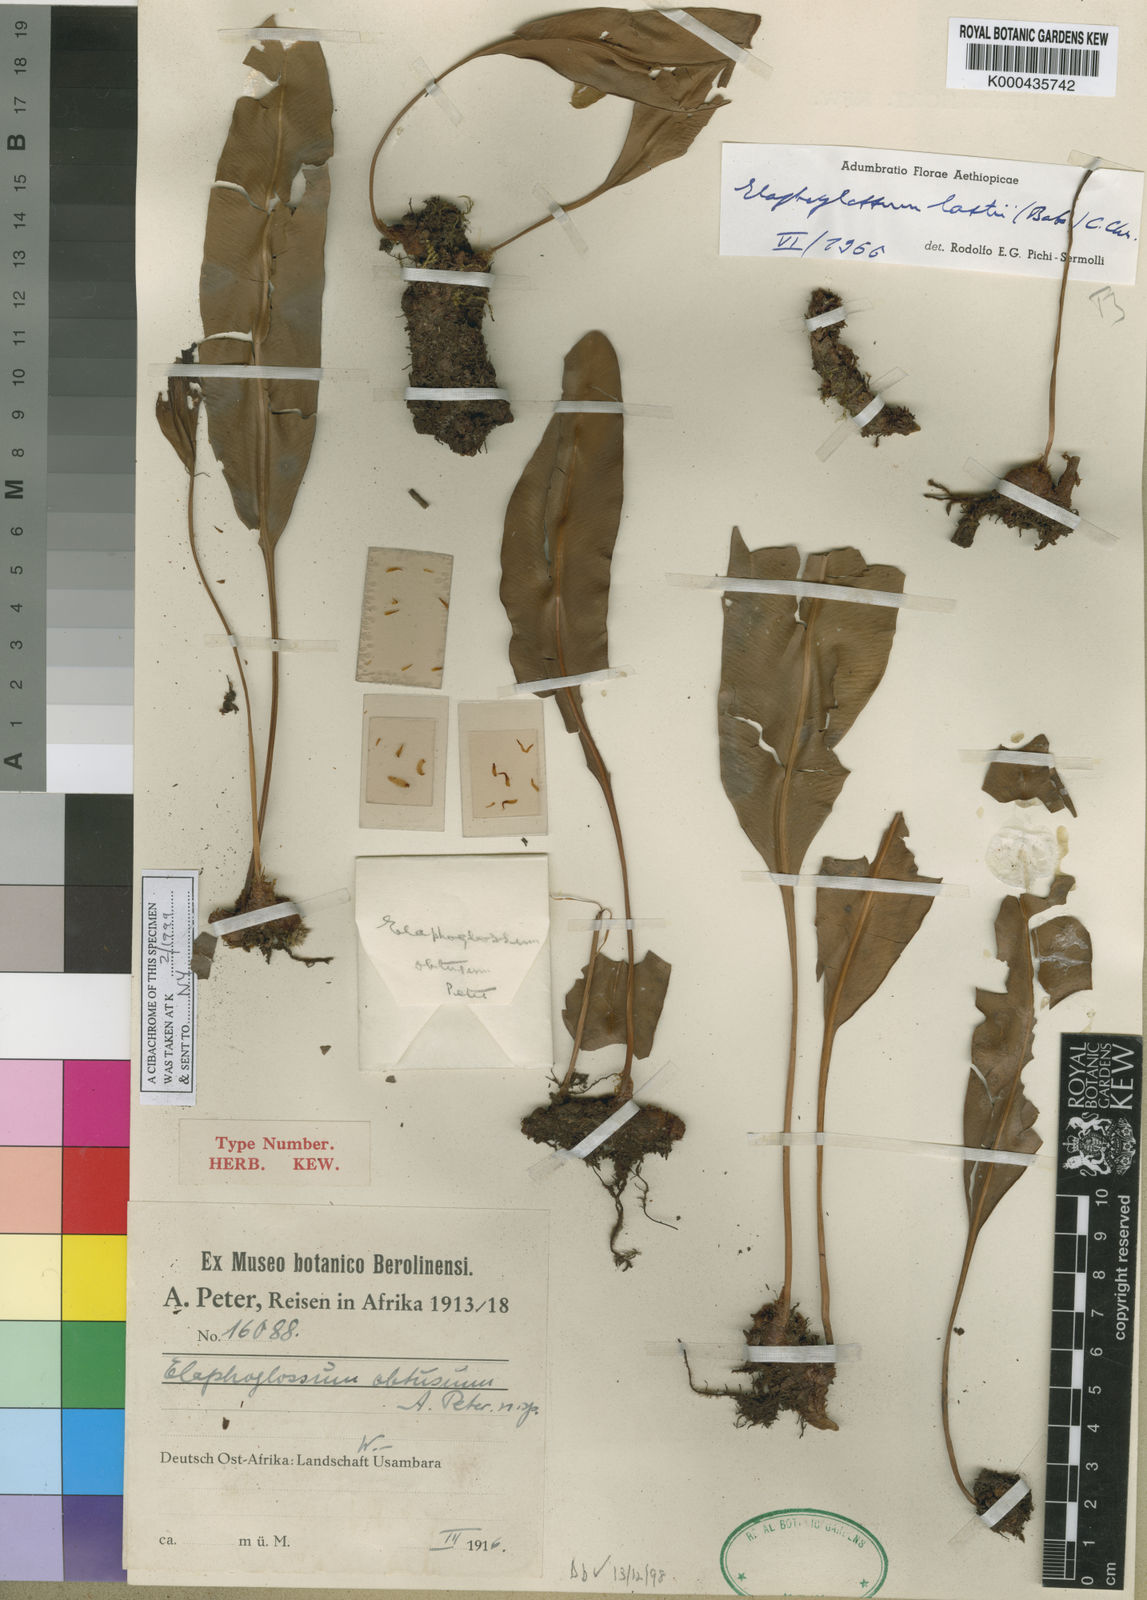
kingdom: Plantae
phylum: Tracheophyta
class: Polypodiopsida
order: Polypodiales
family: Dryopteridaceae
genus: Elaphoglossum
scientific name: Elaphoglossum lastii
